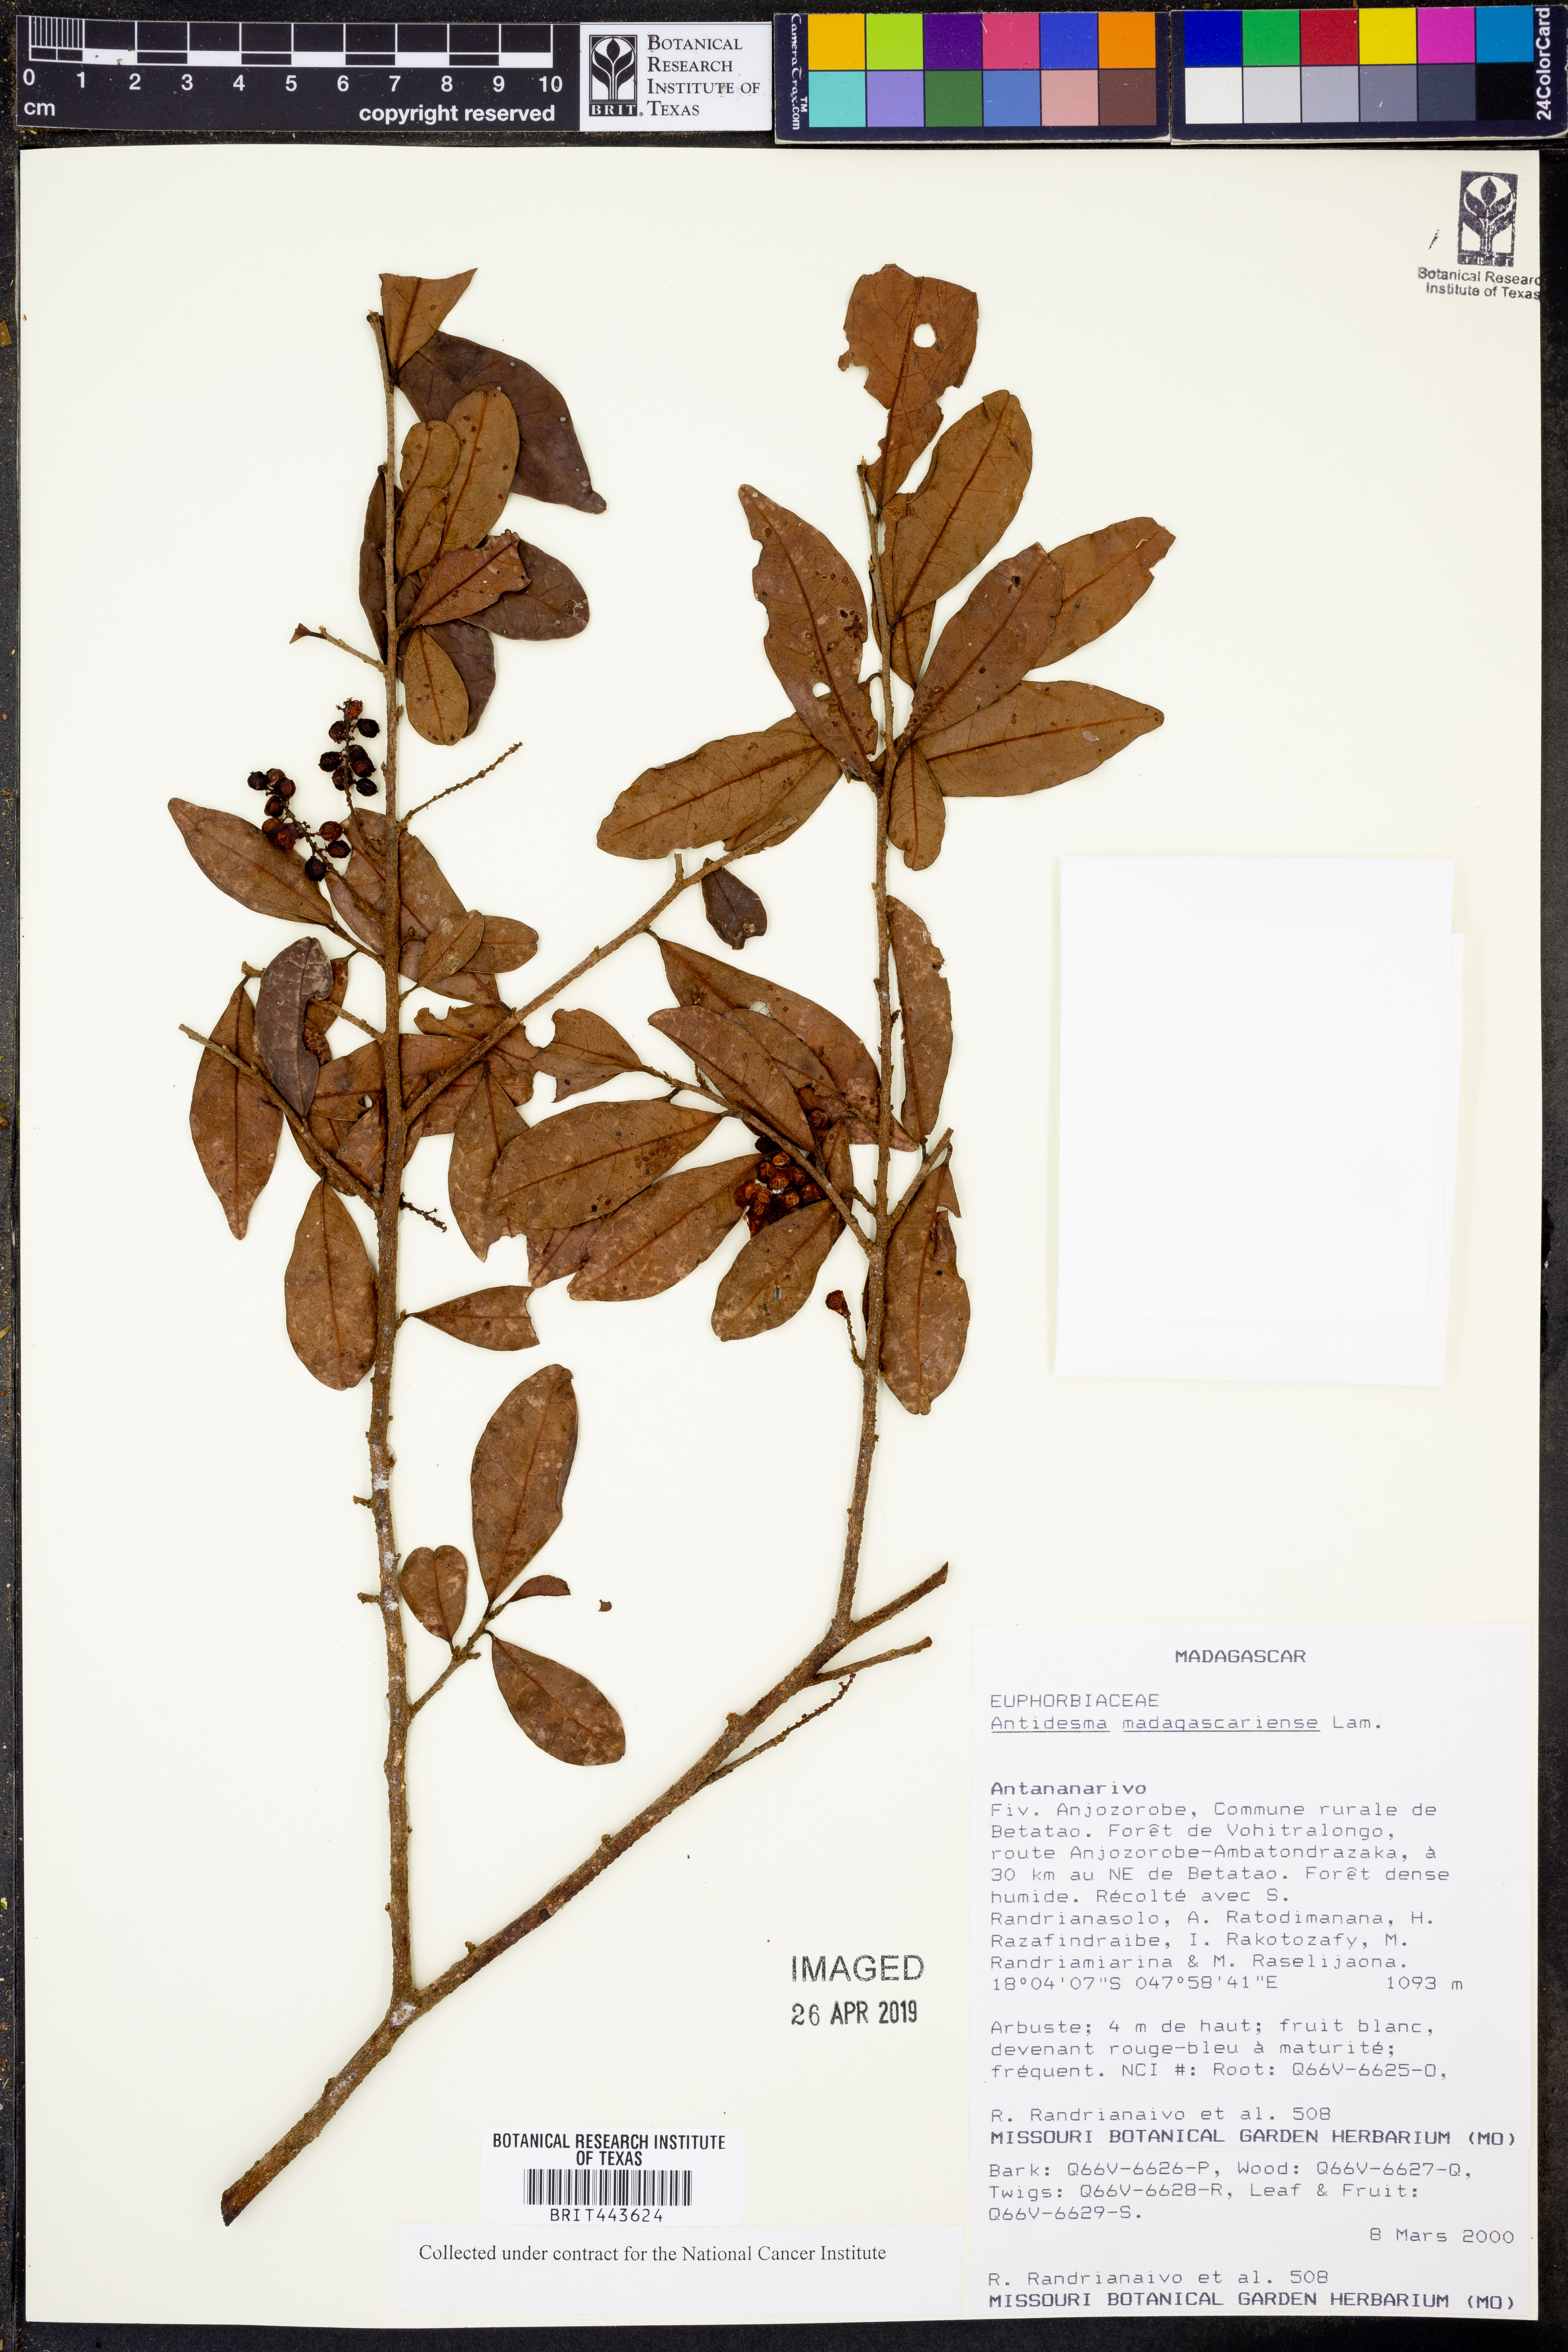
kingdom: Plantae
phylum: Tracheophyta
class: Magnoliopsida
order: Malpighiales
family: Phyllanthaceae
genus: Antidesma
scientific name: Antidesma madagascariense
